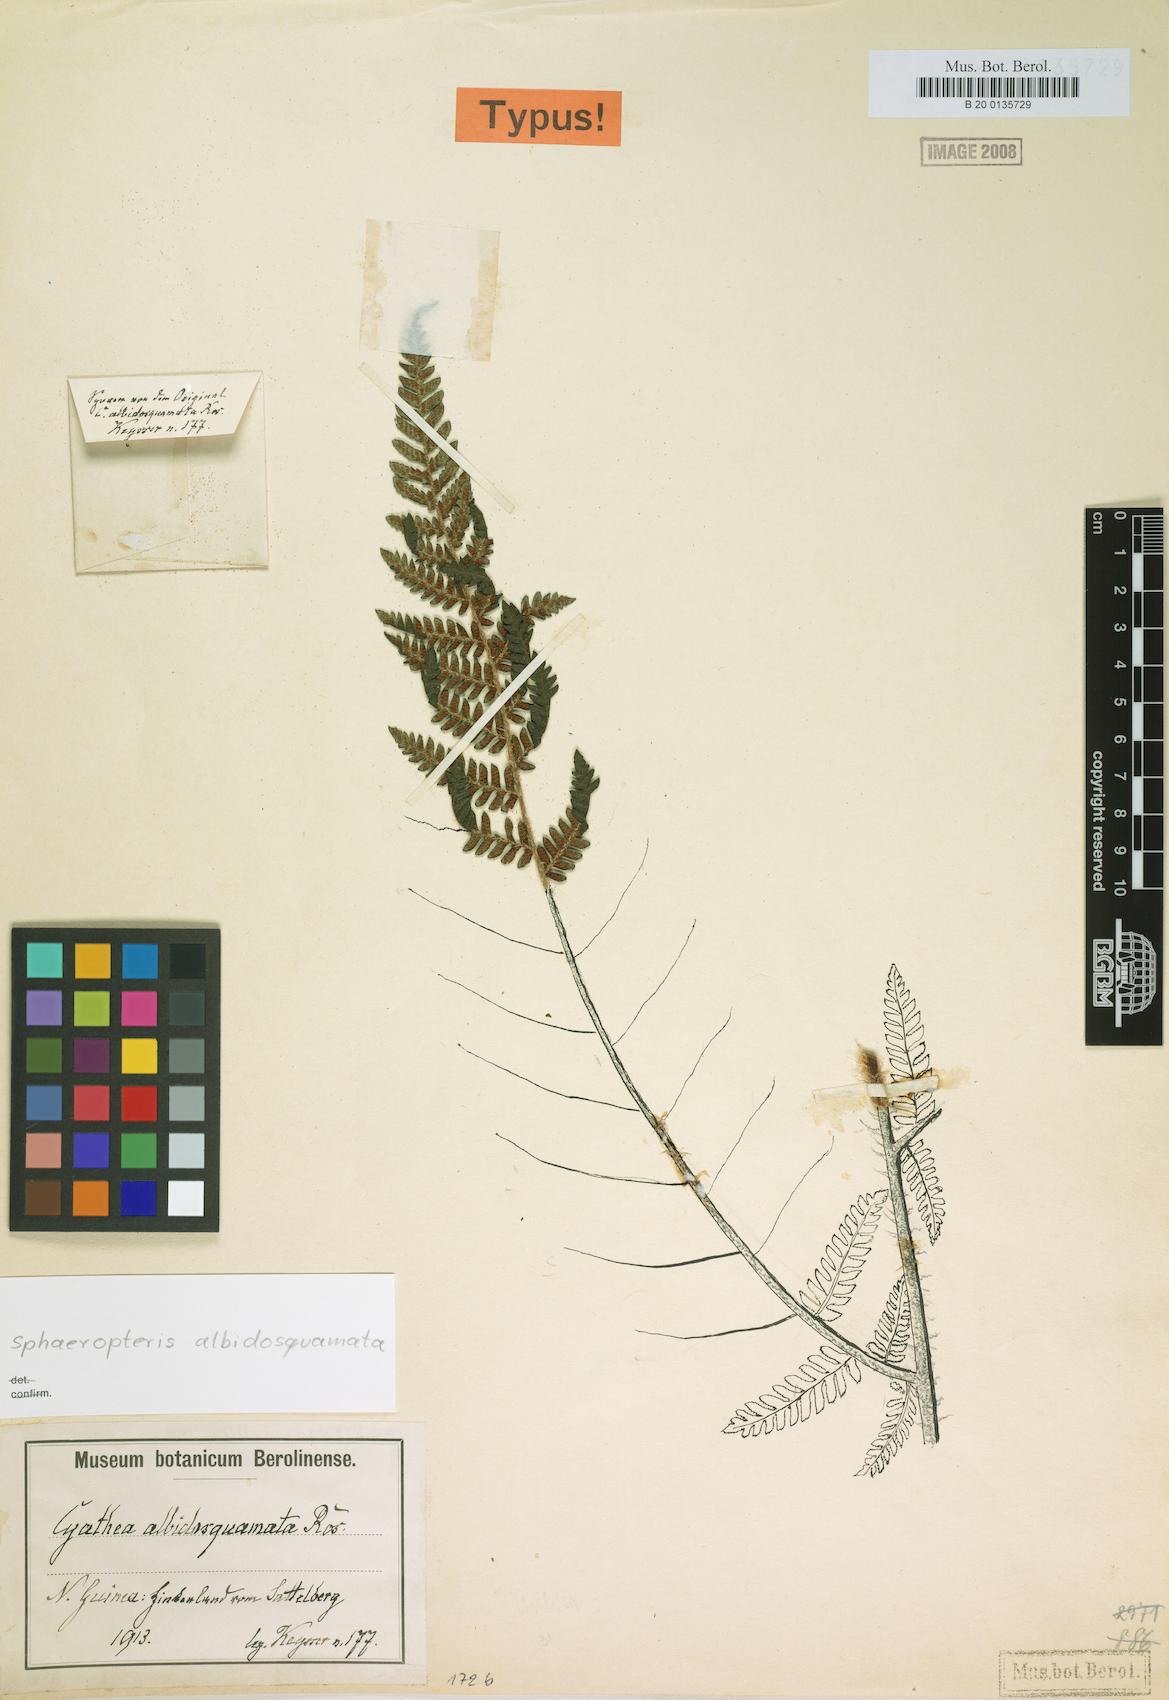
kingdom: Plantae
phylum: Tracheophyta
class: Polypodiopsida
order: Cyatheales
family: Cyatheaceae
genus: Alsophila
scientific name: Alsophila albidosquamata
